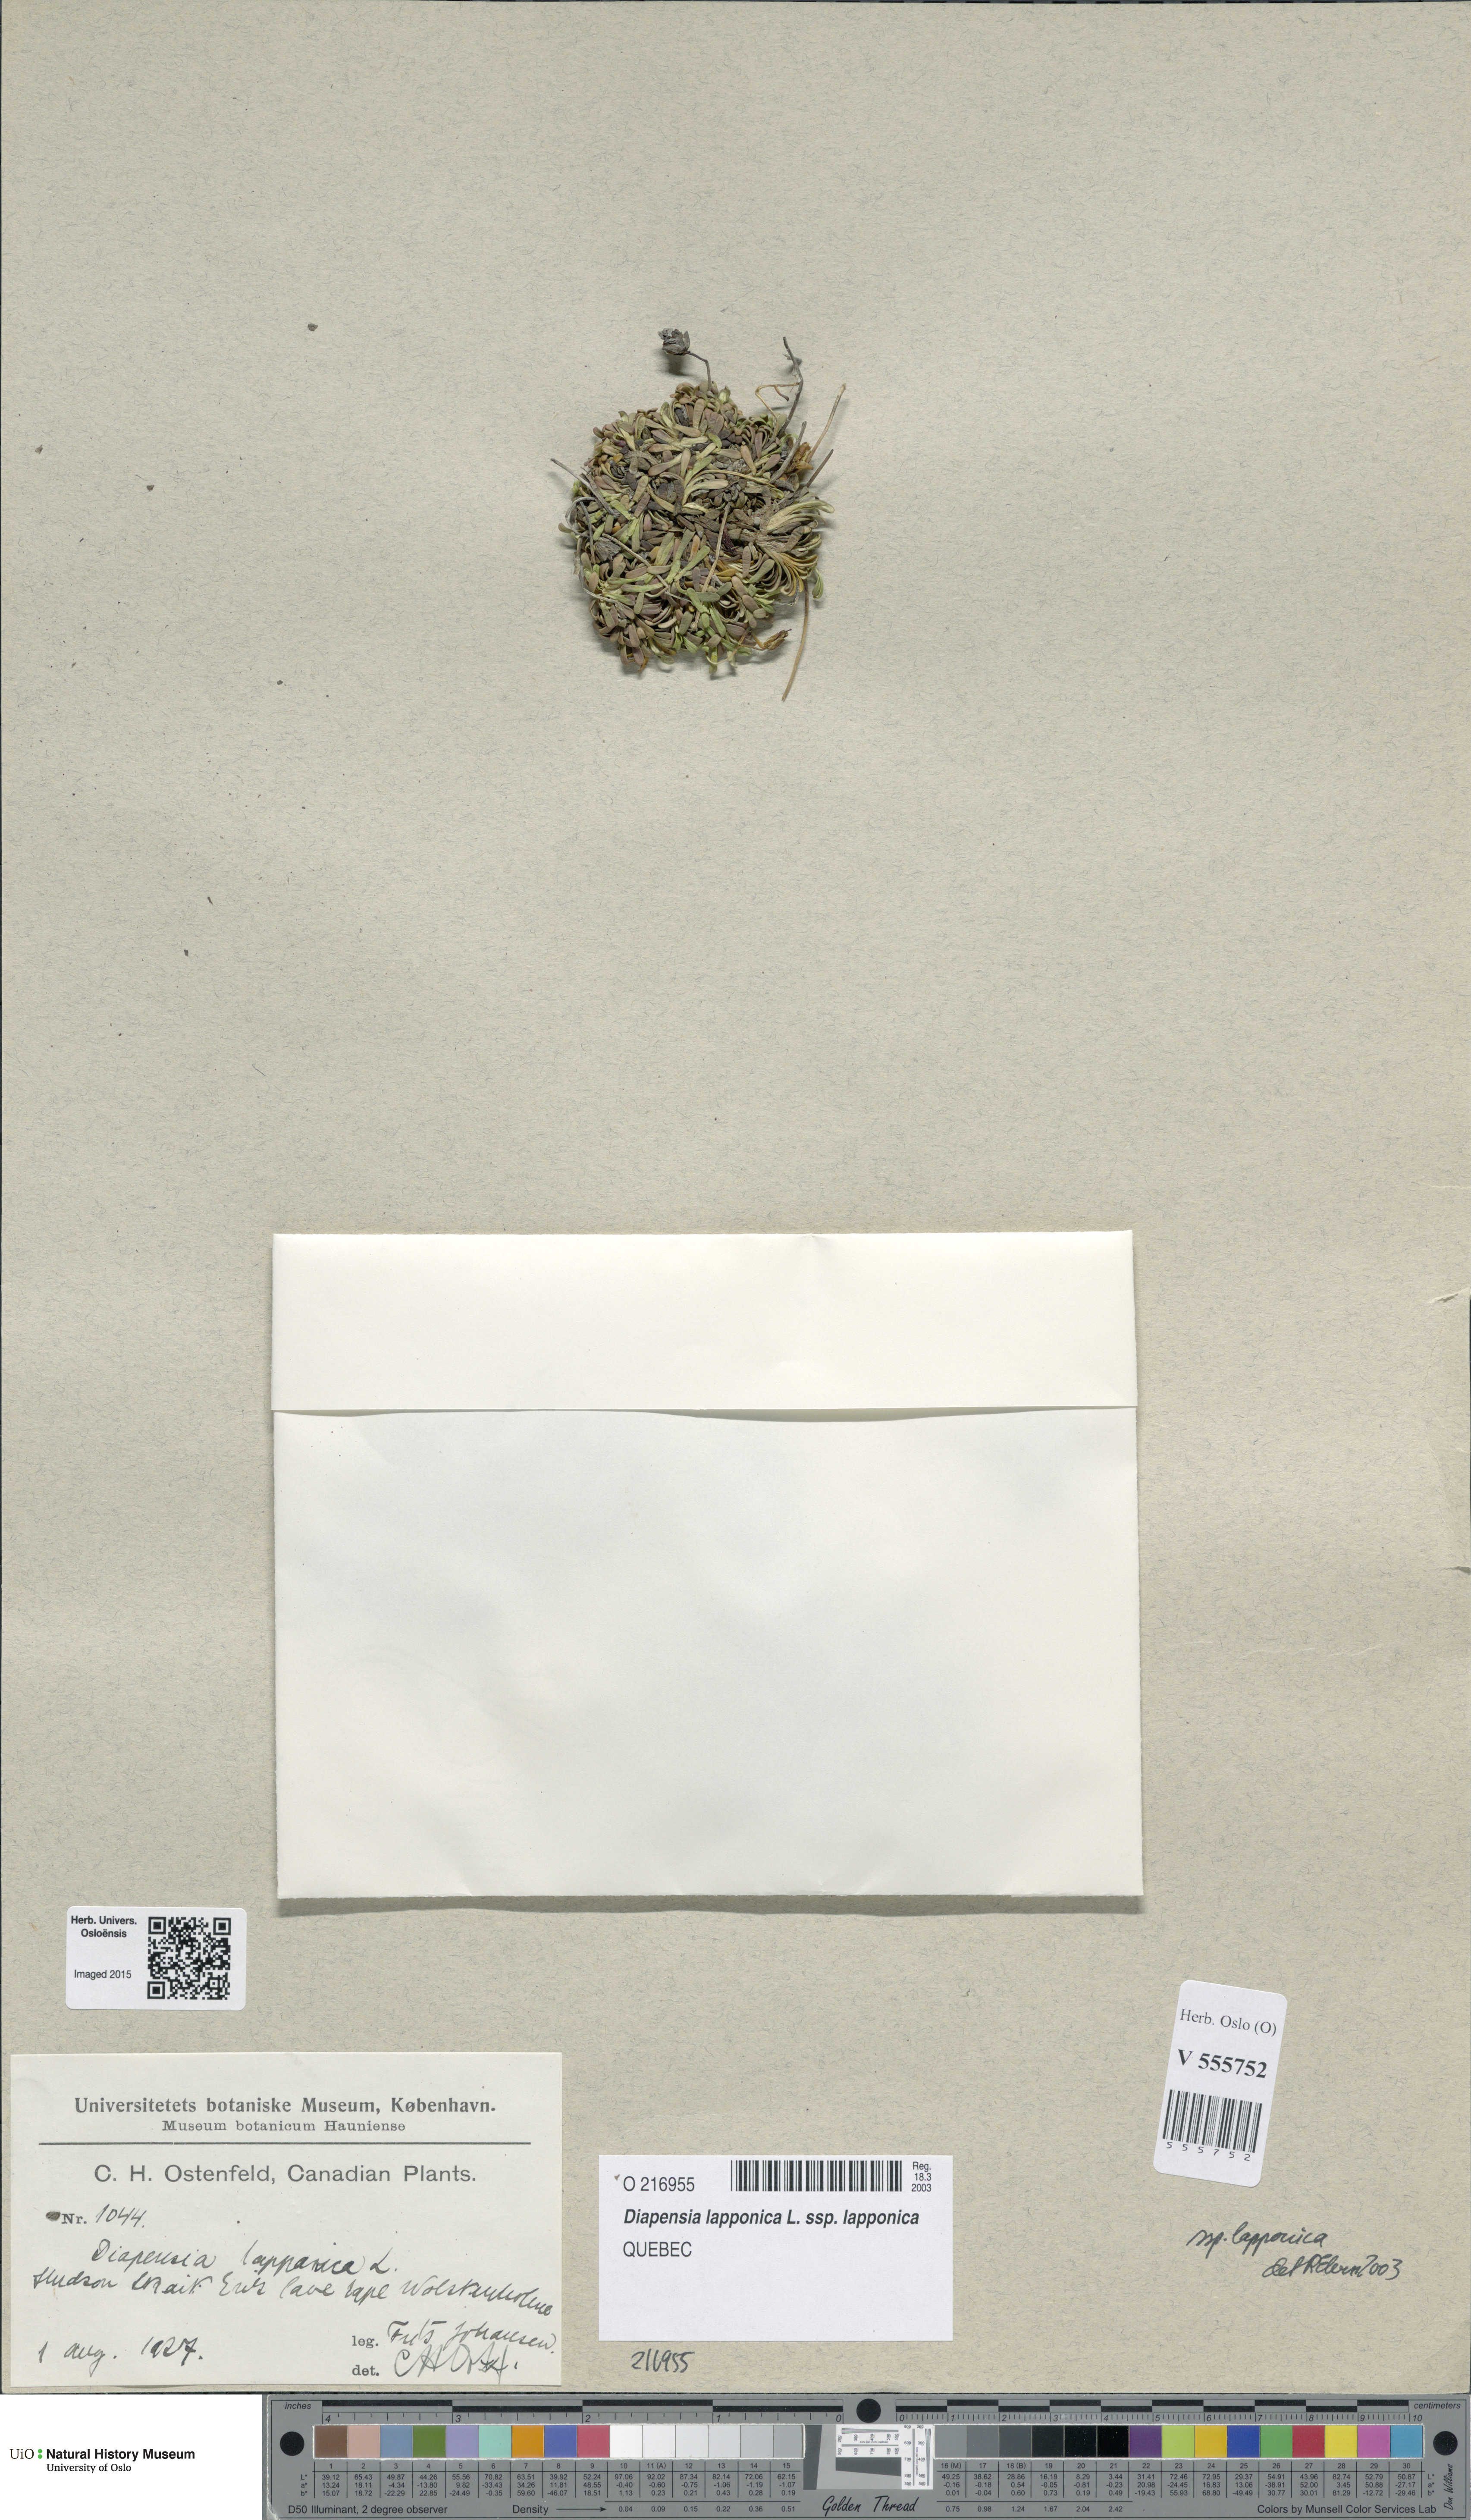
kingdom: Plantae
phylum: Tracheophyta
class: Magnoliopsida
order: Ericales
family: Diapensiaceae
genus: Diapensia
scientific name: Diapensia lapponica
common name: Diapensia
